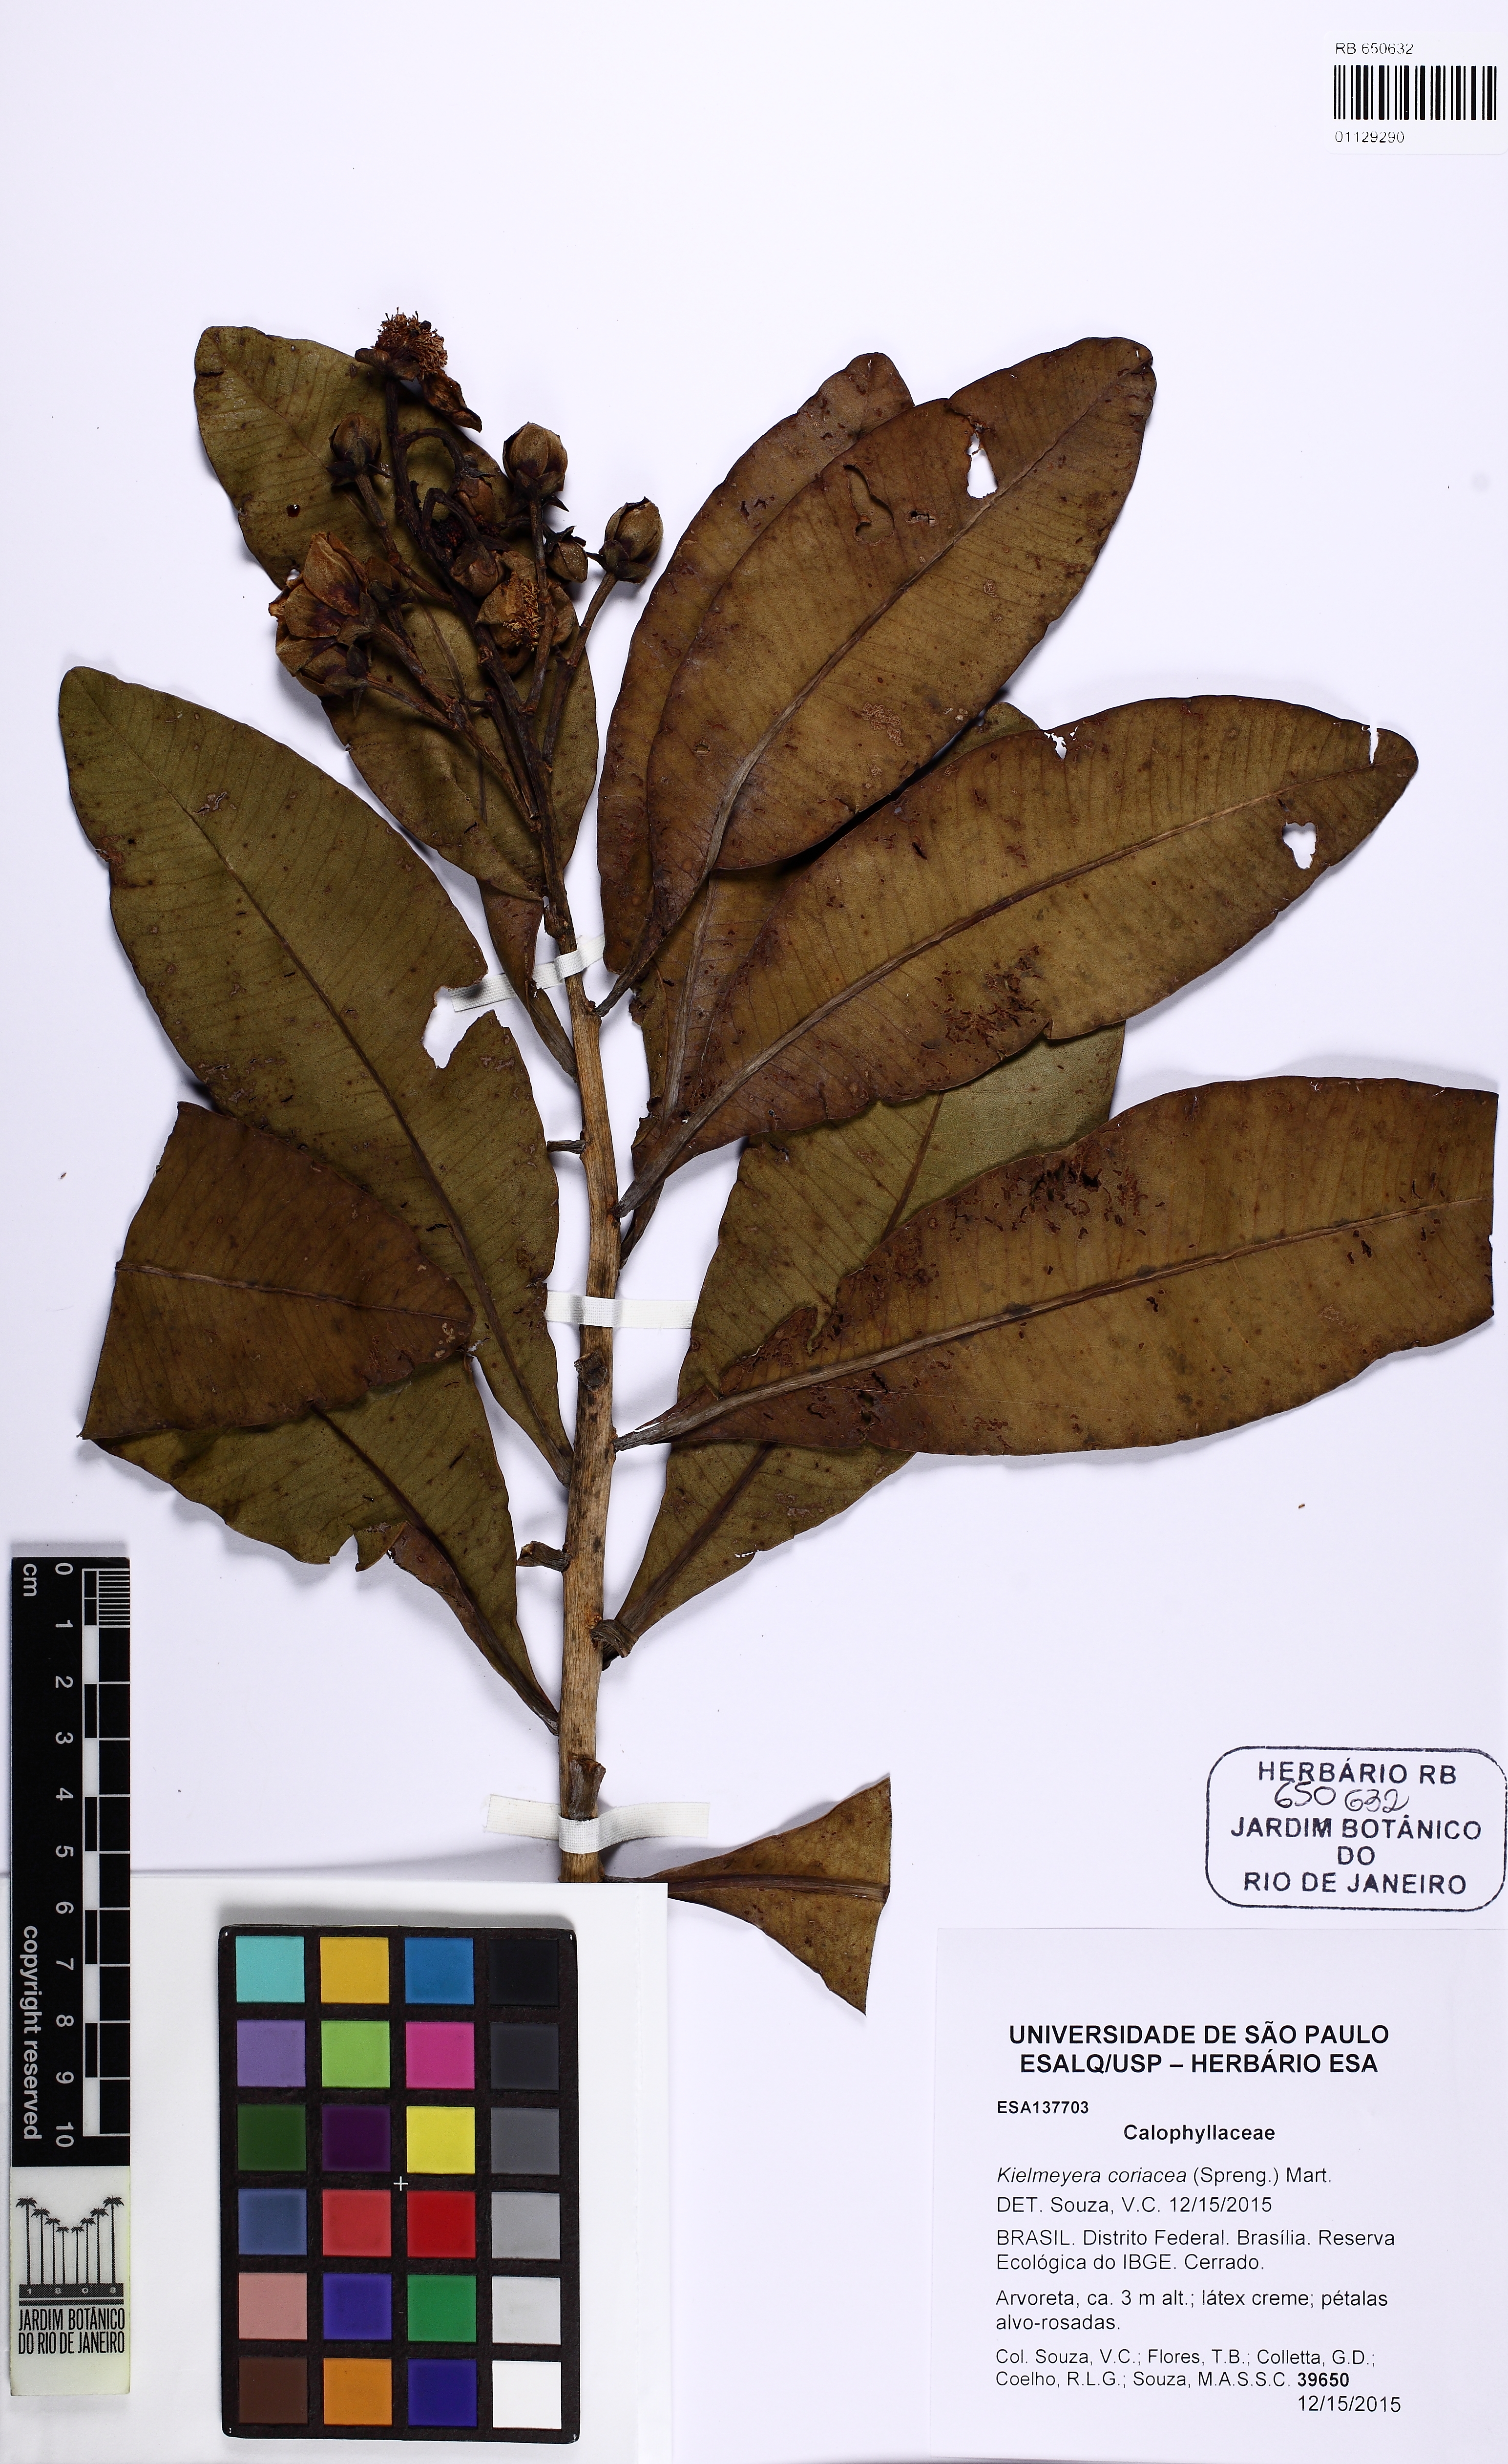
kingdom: Plantae
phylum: Tracheophyta
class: Magnoliopsida
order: Malpighiales
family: Calophyllaceae
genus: Kielmeyera
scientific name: Kielmeyera coriacea
